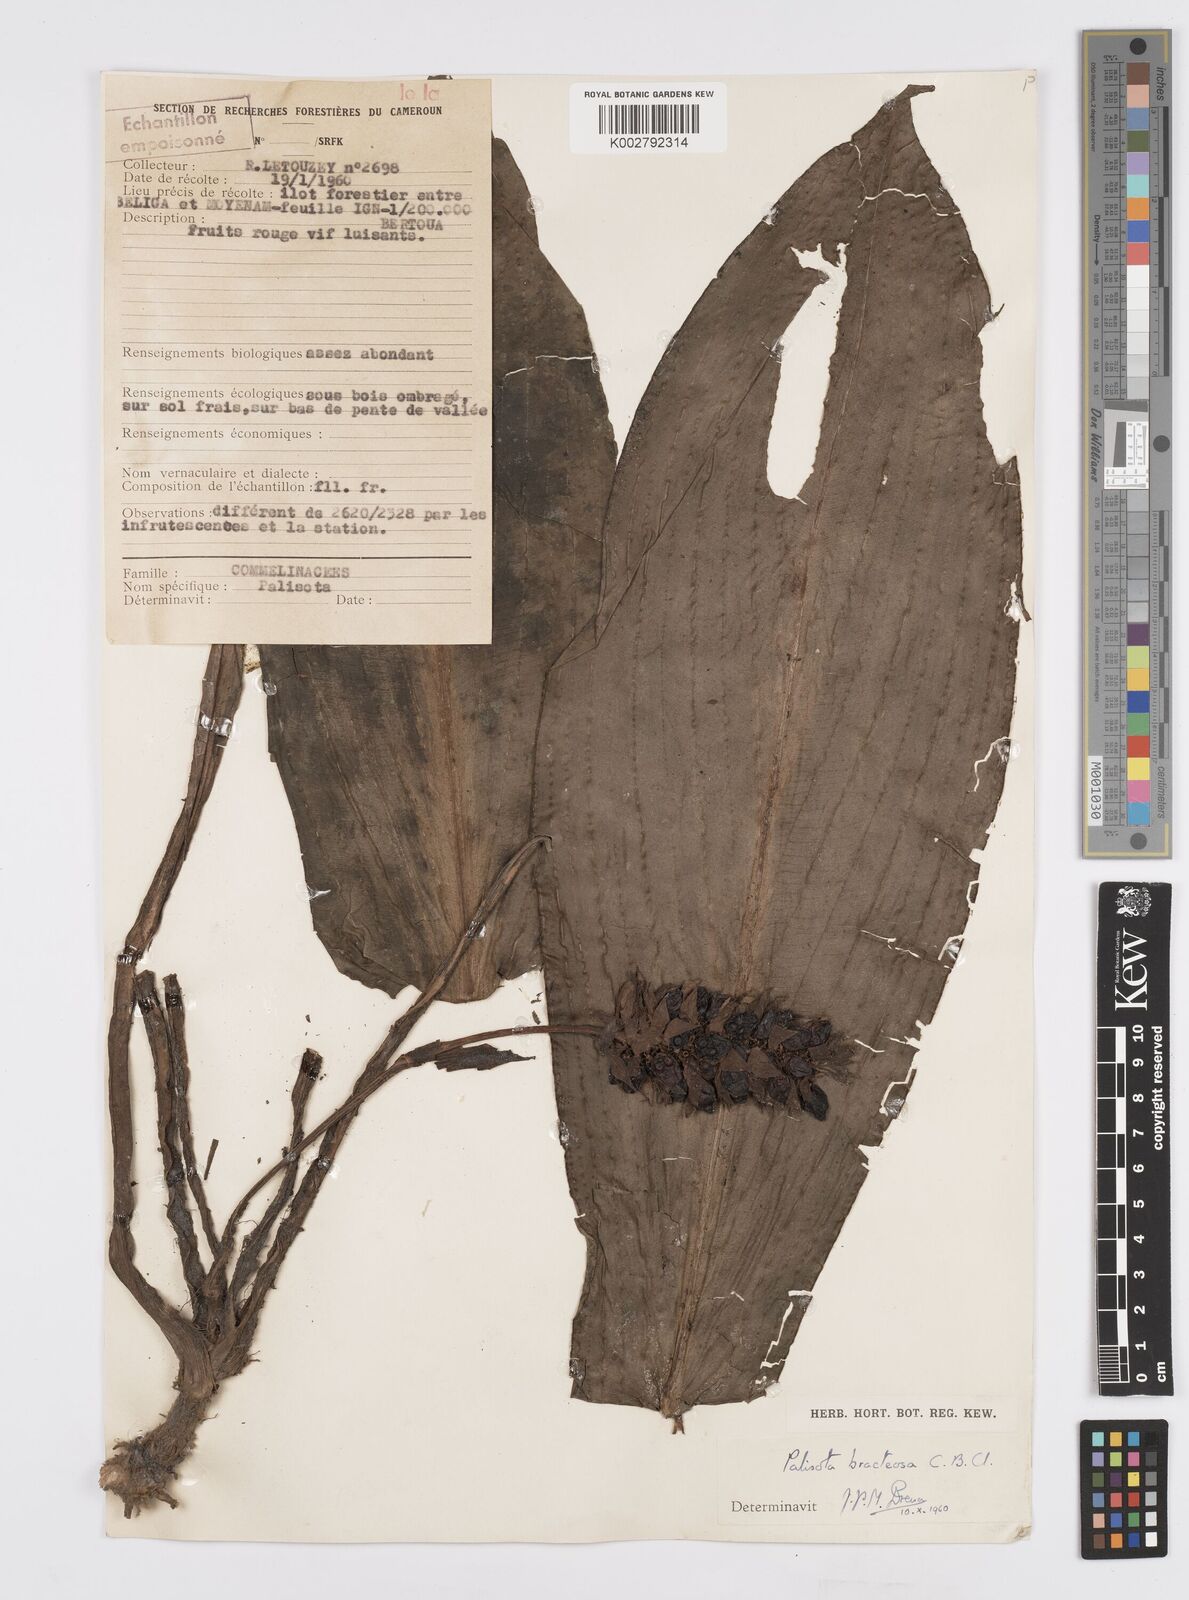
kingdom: Plantae
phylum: Tracheophyta
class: Liliopsida
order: Commelinales
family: Commelinaceae
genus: Palisota
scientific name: Palisota bracteosa
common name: Palisota
